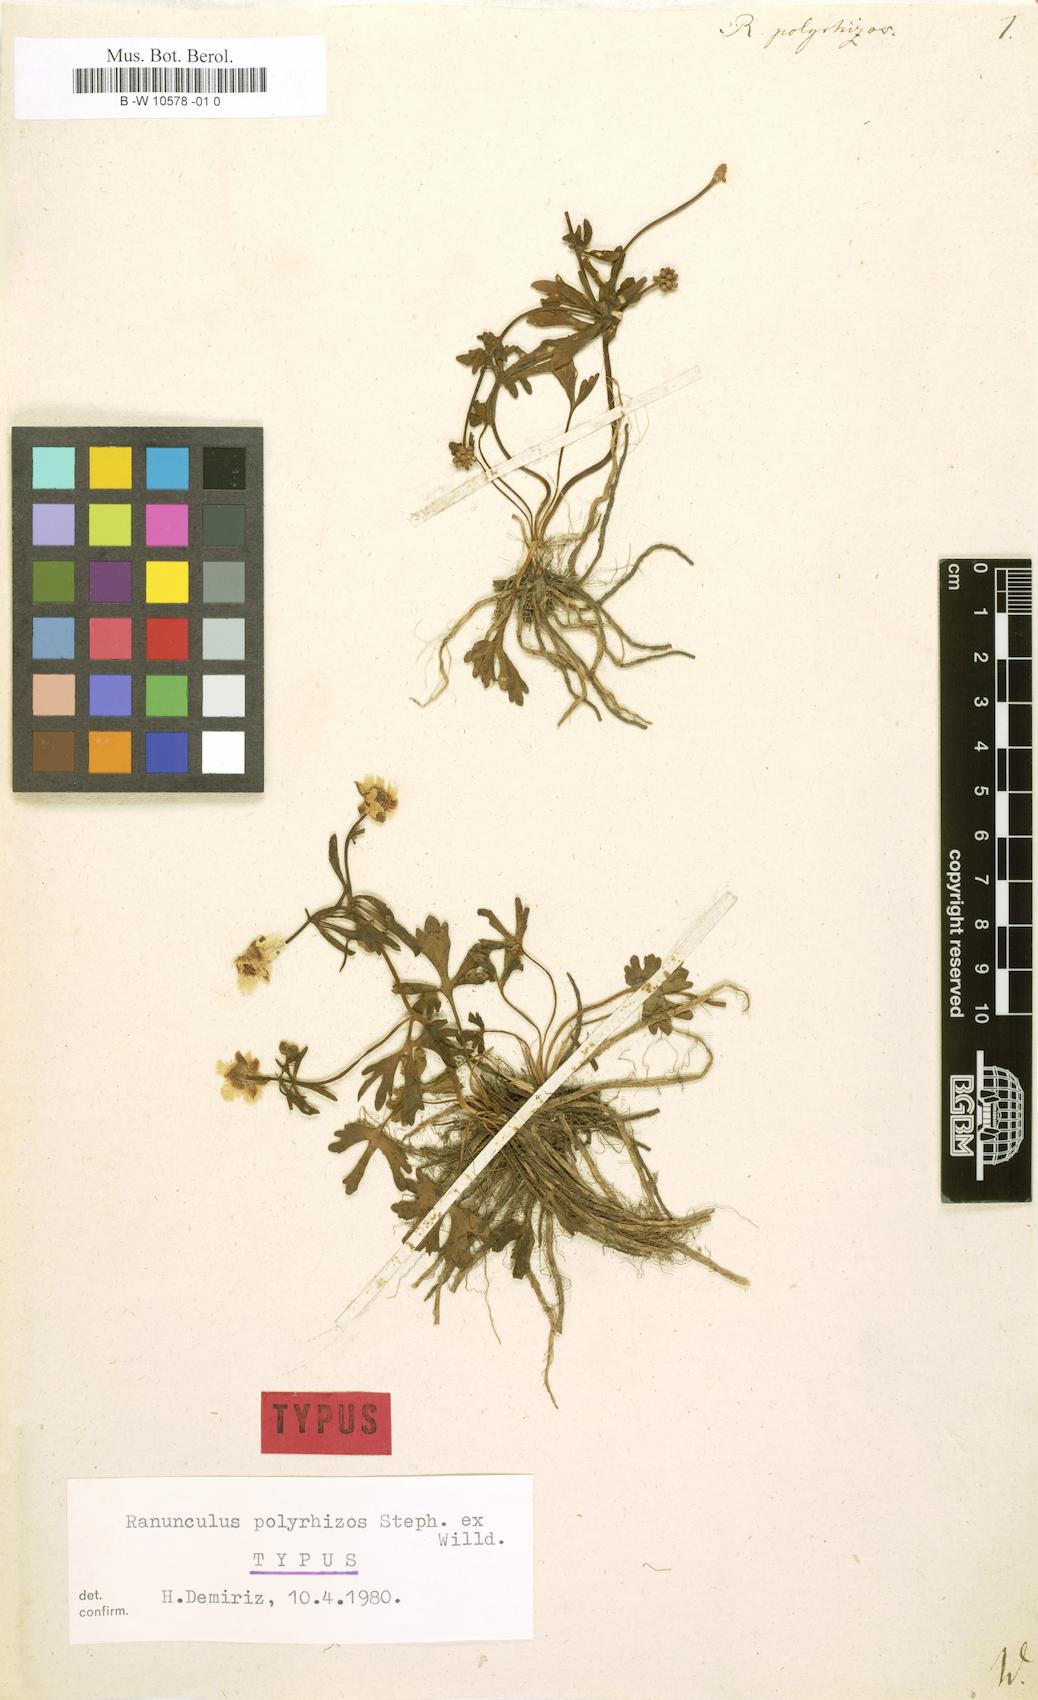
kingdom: Plantae
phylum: Tracheophyta
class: Magnoliopsida
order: Ranunculales
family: Ranunculaceae
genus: Ranunculus
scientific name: Ranunculus polyrhizos
